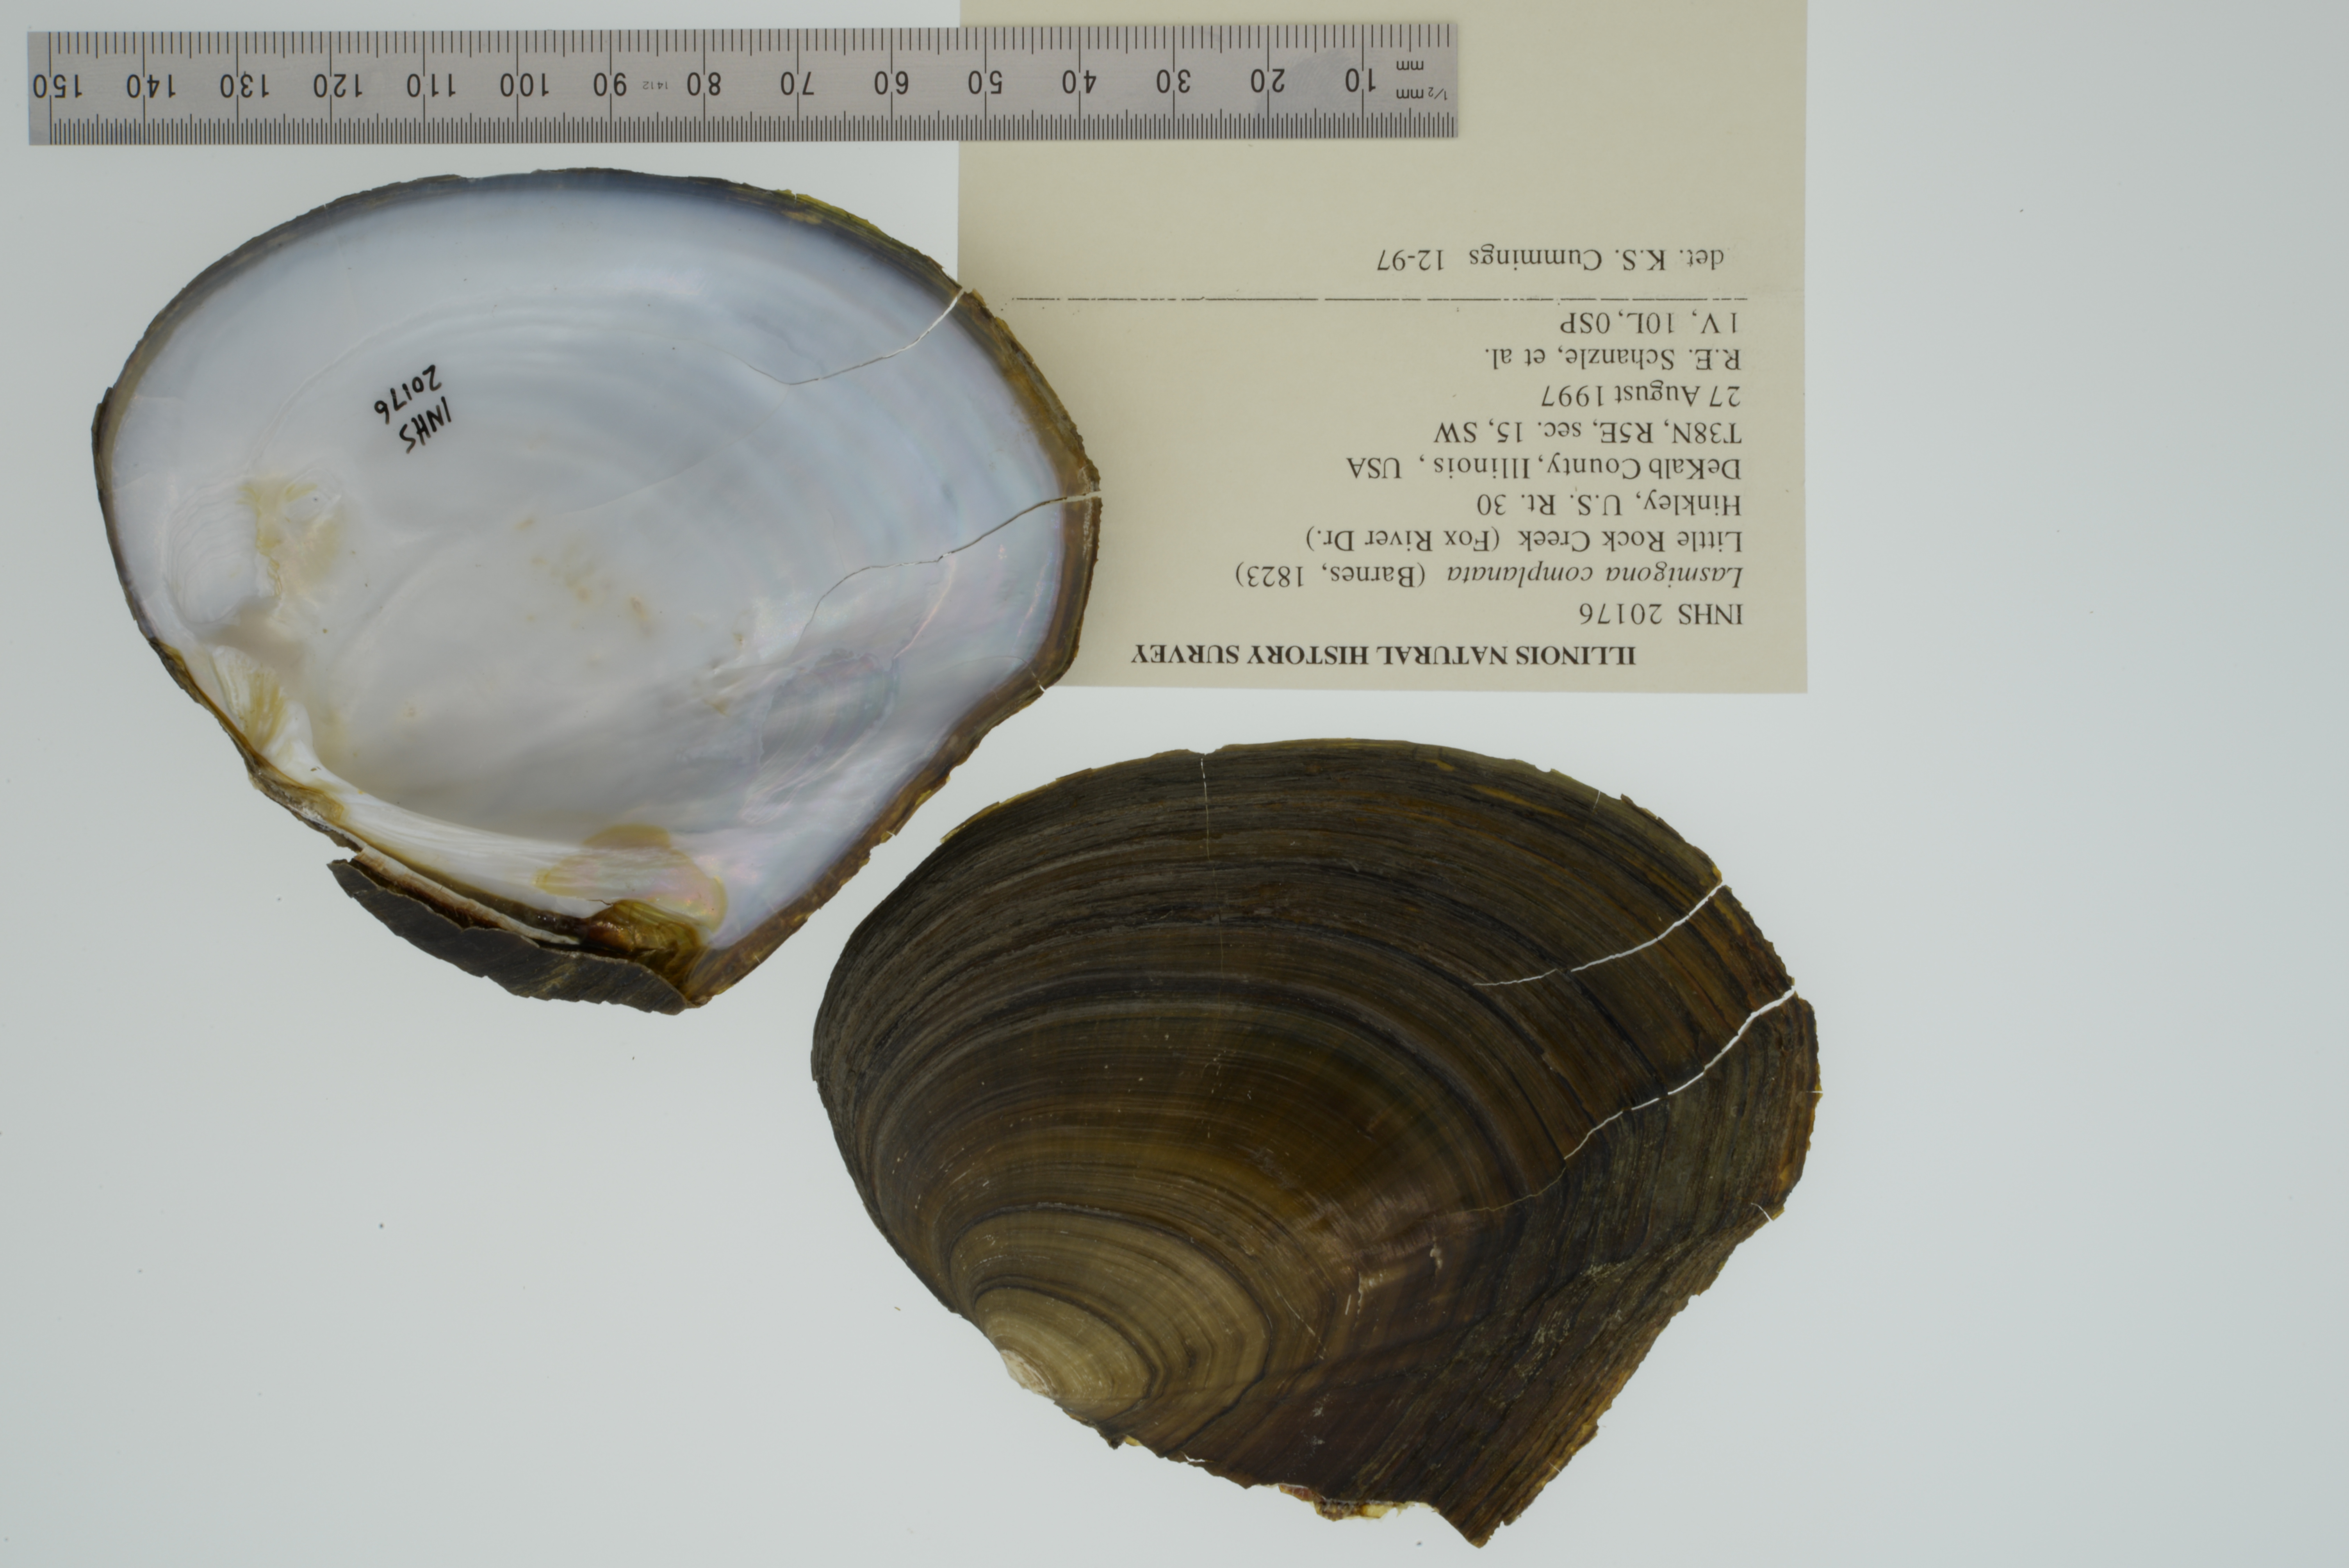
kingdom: Animalia
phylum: Mollusca
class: Bivalvia
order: Unionida
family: Unionidae
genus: Lasmigona
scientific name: Lasmigona complanata
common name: White heelsplitter
